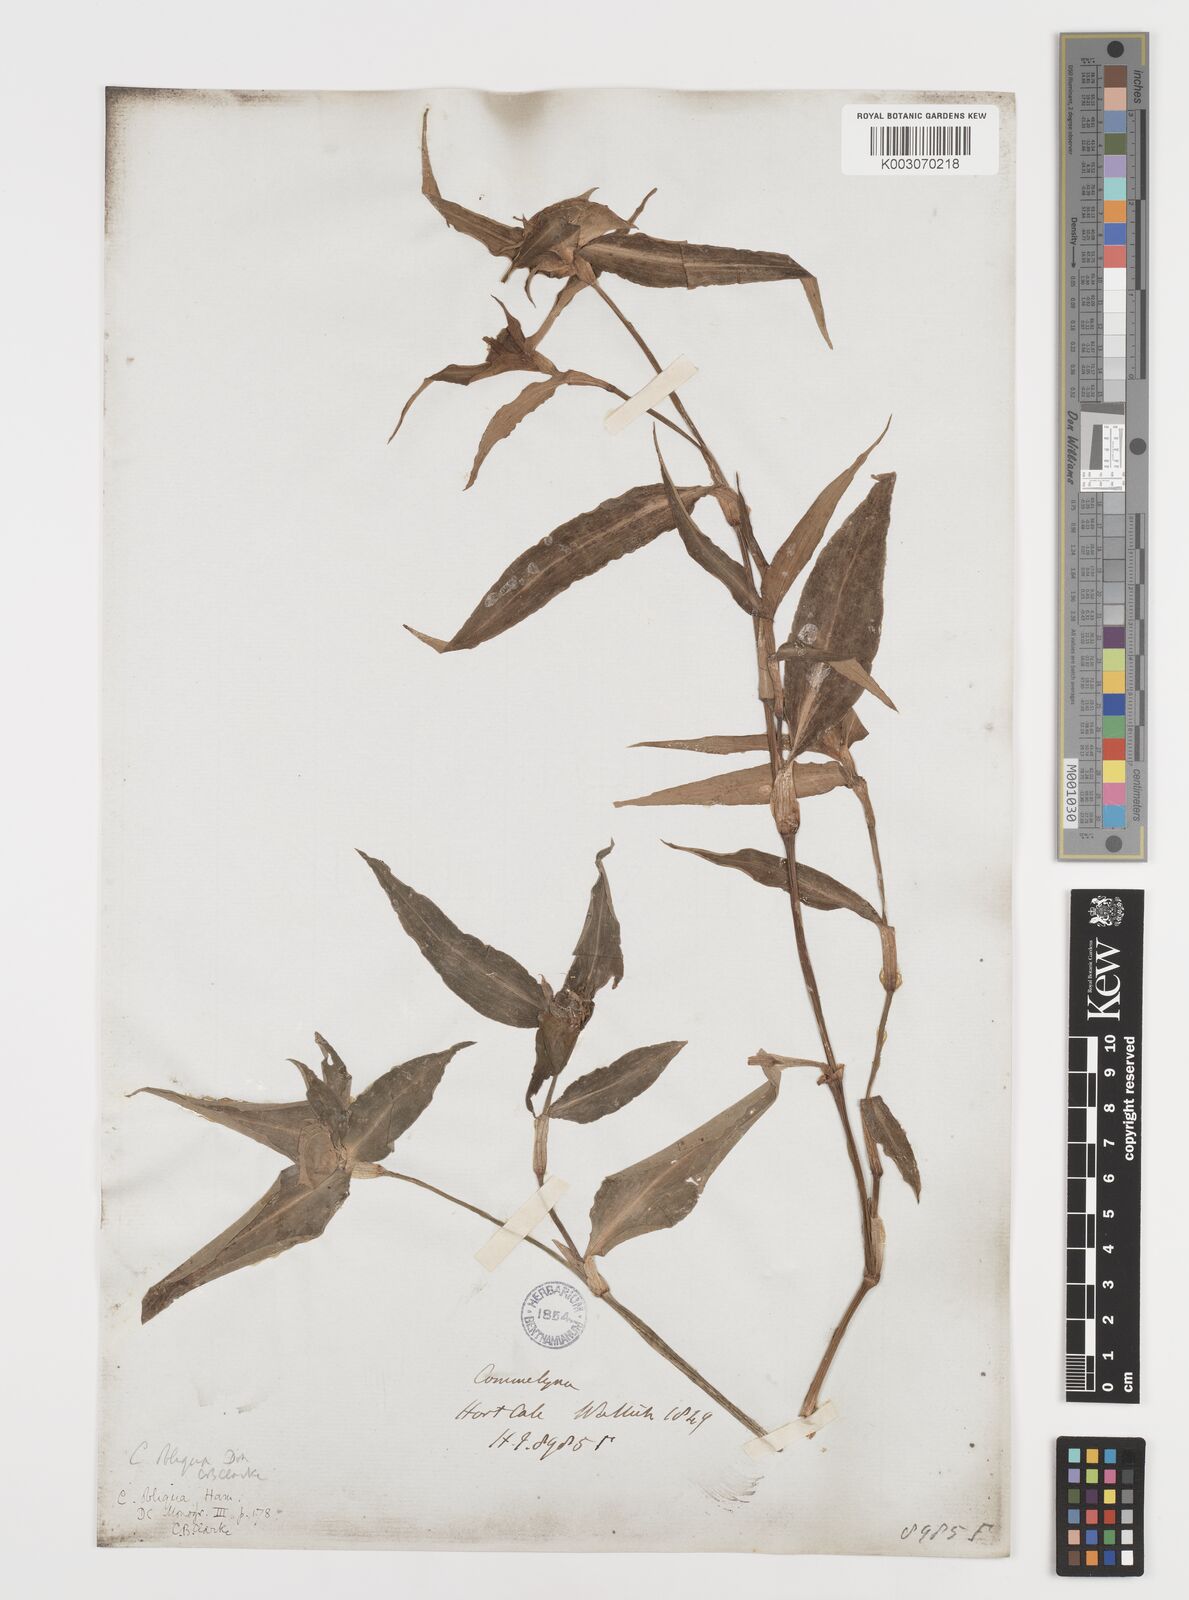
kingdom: Plantae
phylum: Tracheophyta
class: Liliopsida
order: Commelinales
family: Commelinaceae
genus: Commelina
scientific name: Commelina undulata
